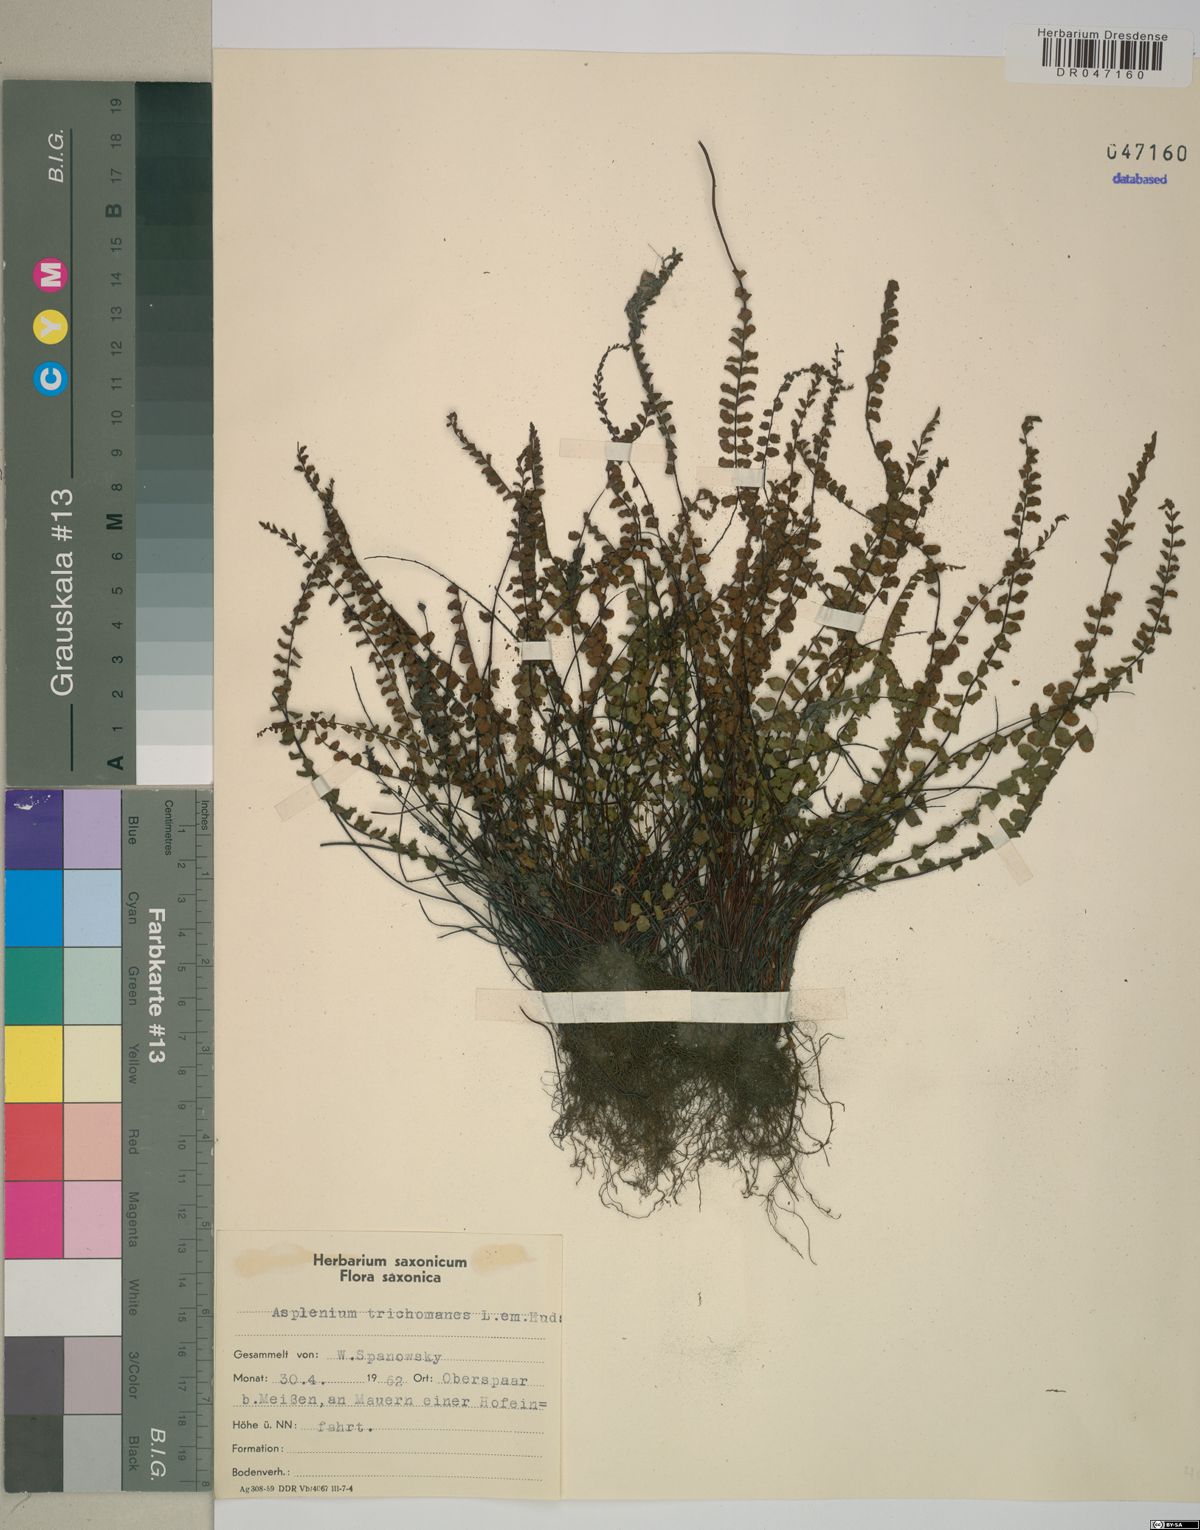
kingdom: Plantae
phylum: Tracheophyta
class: Polypodiopsida
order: Polypodiales
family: Aspleniaceae
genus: Asplenium
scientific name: Asplenium trichomanes
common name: Maidenhair spleenwort
